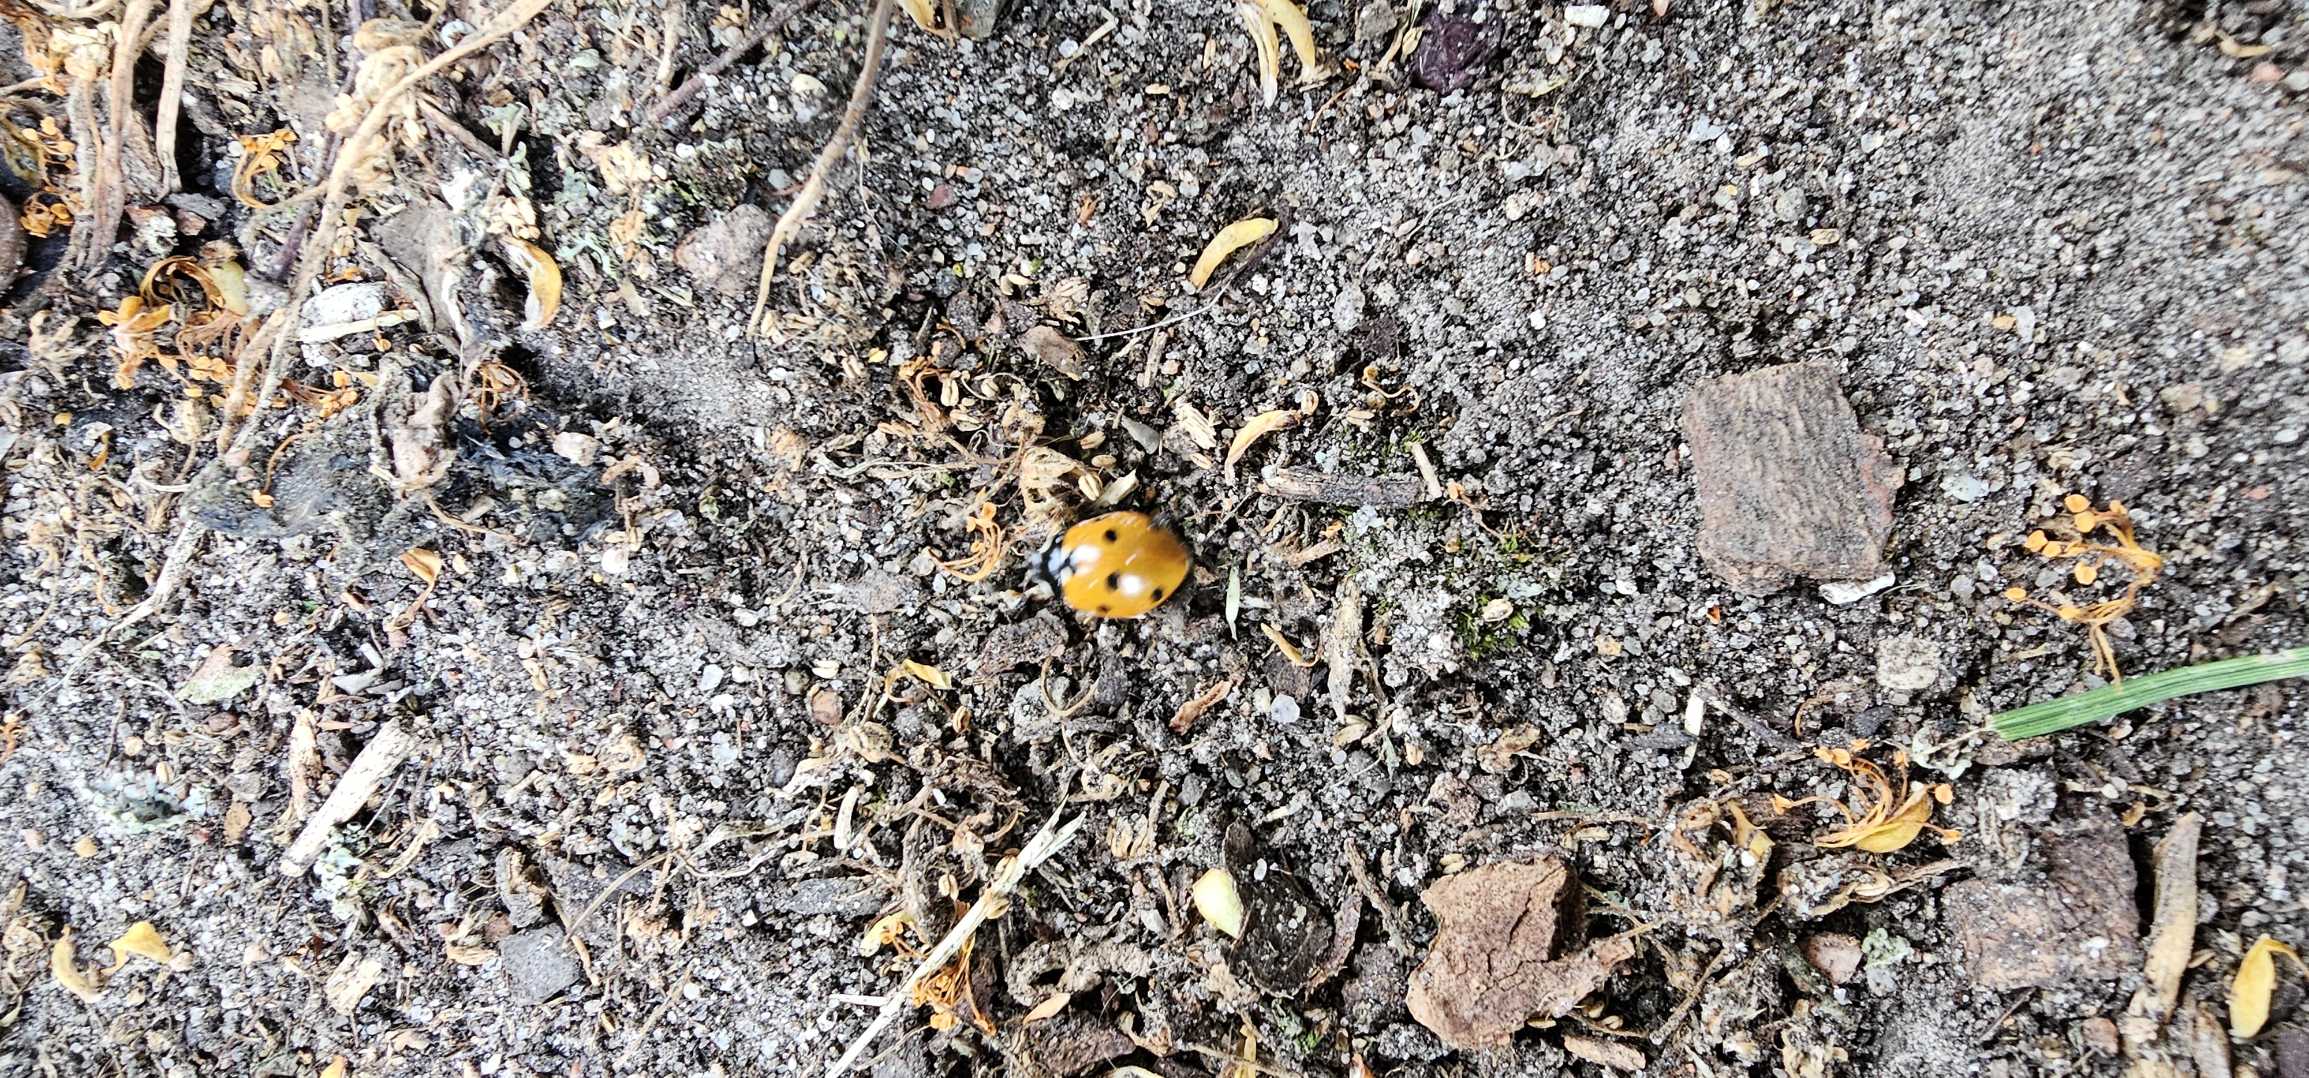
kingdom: Animalia
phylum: Arthropoda
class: Insecta
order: Coleoptera
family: Coccinellidae
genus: Coccinella
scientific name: Coccinella septempunctata
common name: Syvplettet mariehøne
